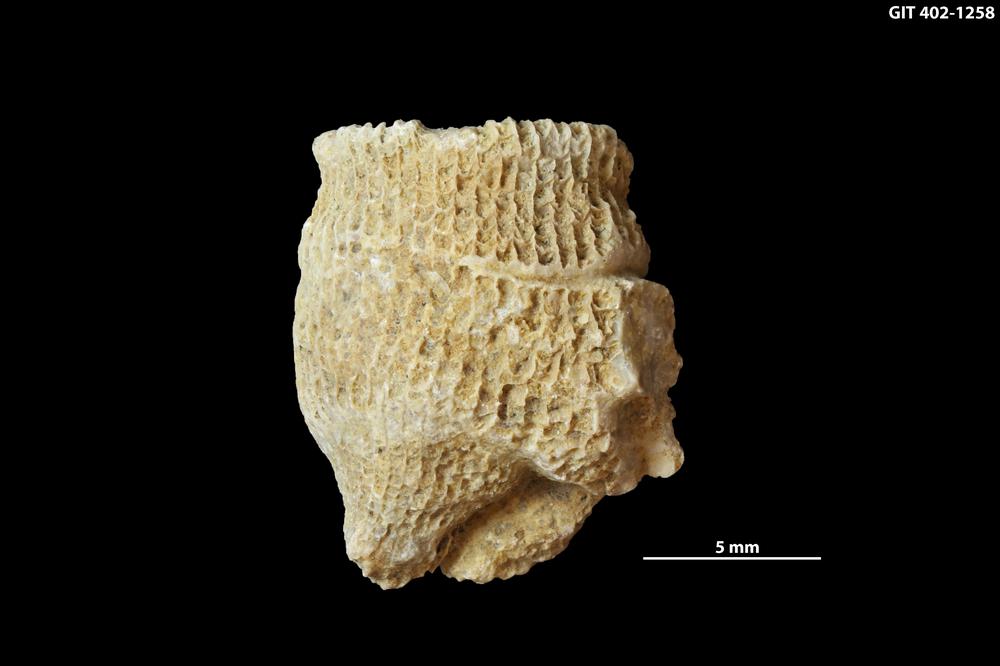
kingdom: Animalia
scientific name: Animalia
